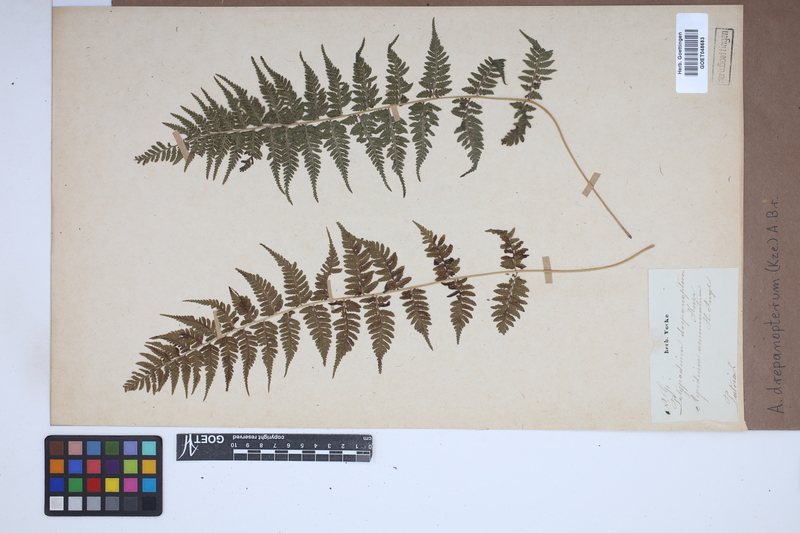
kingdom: Plantae
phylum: Tracheophyta
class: Polypodiopsida
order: Polypodiales
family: Athyriaceae
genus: Athyrium
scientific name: Athyrium drepanopteron
